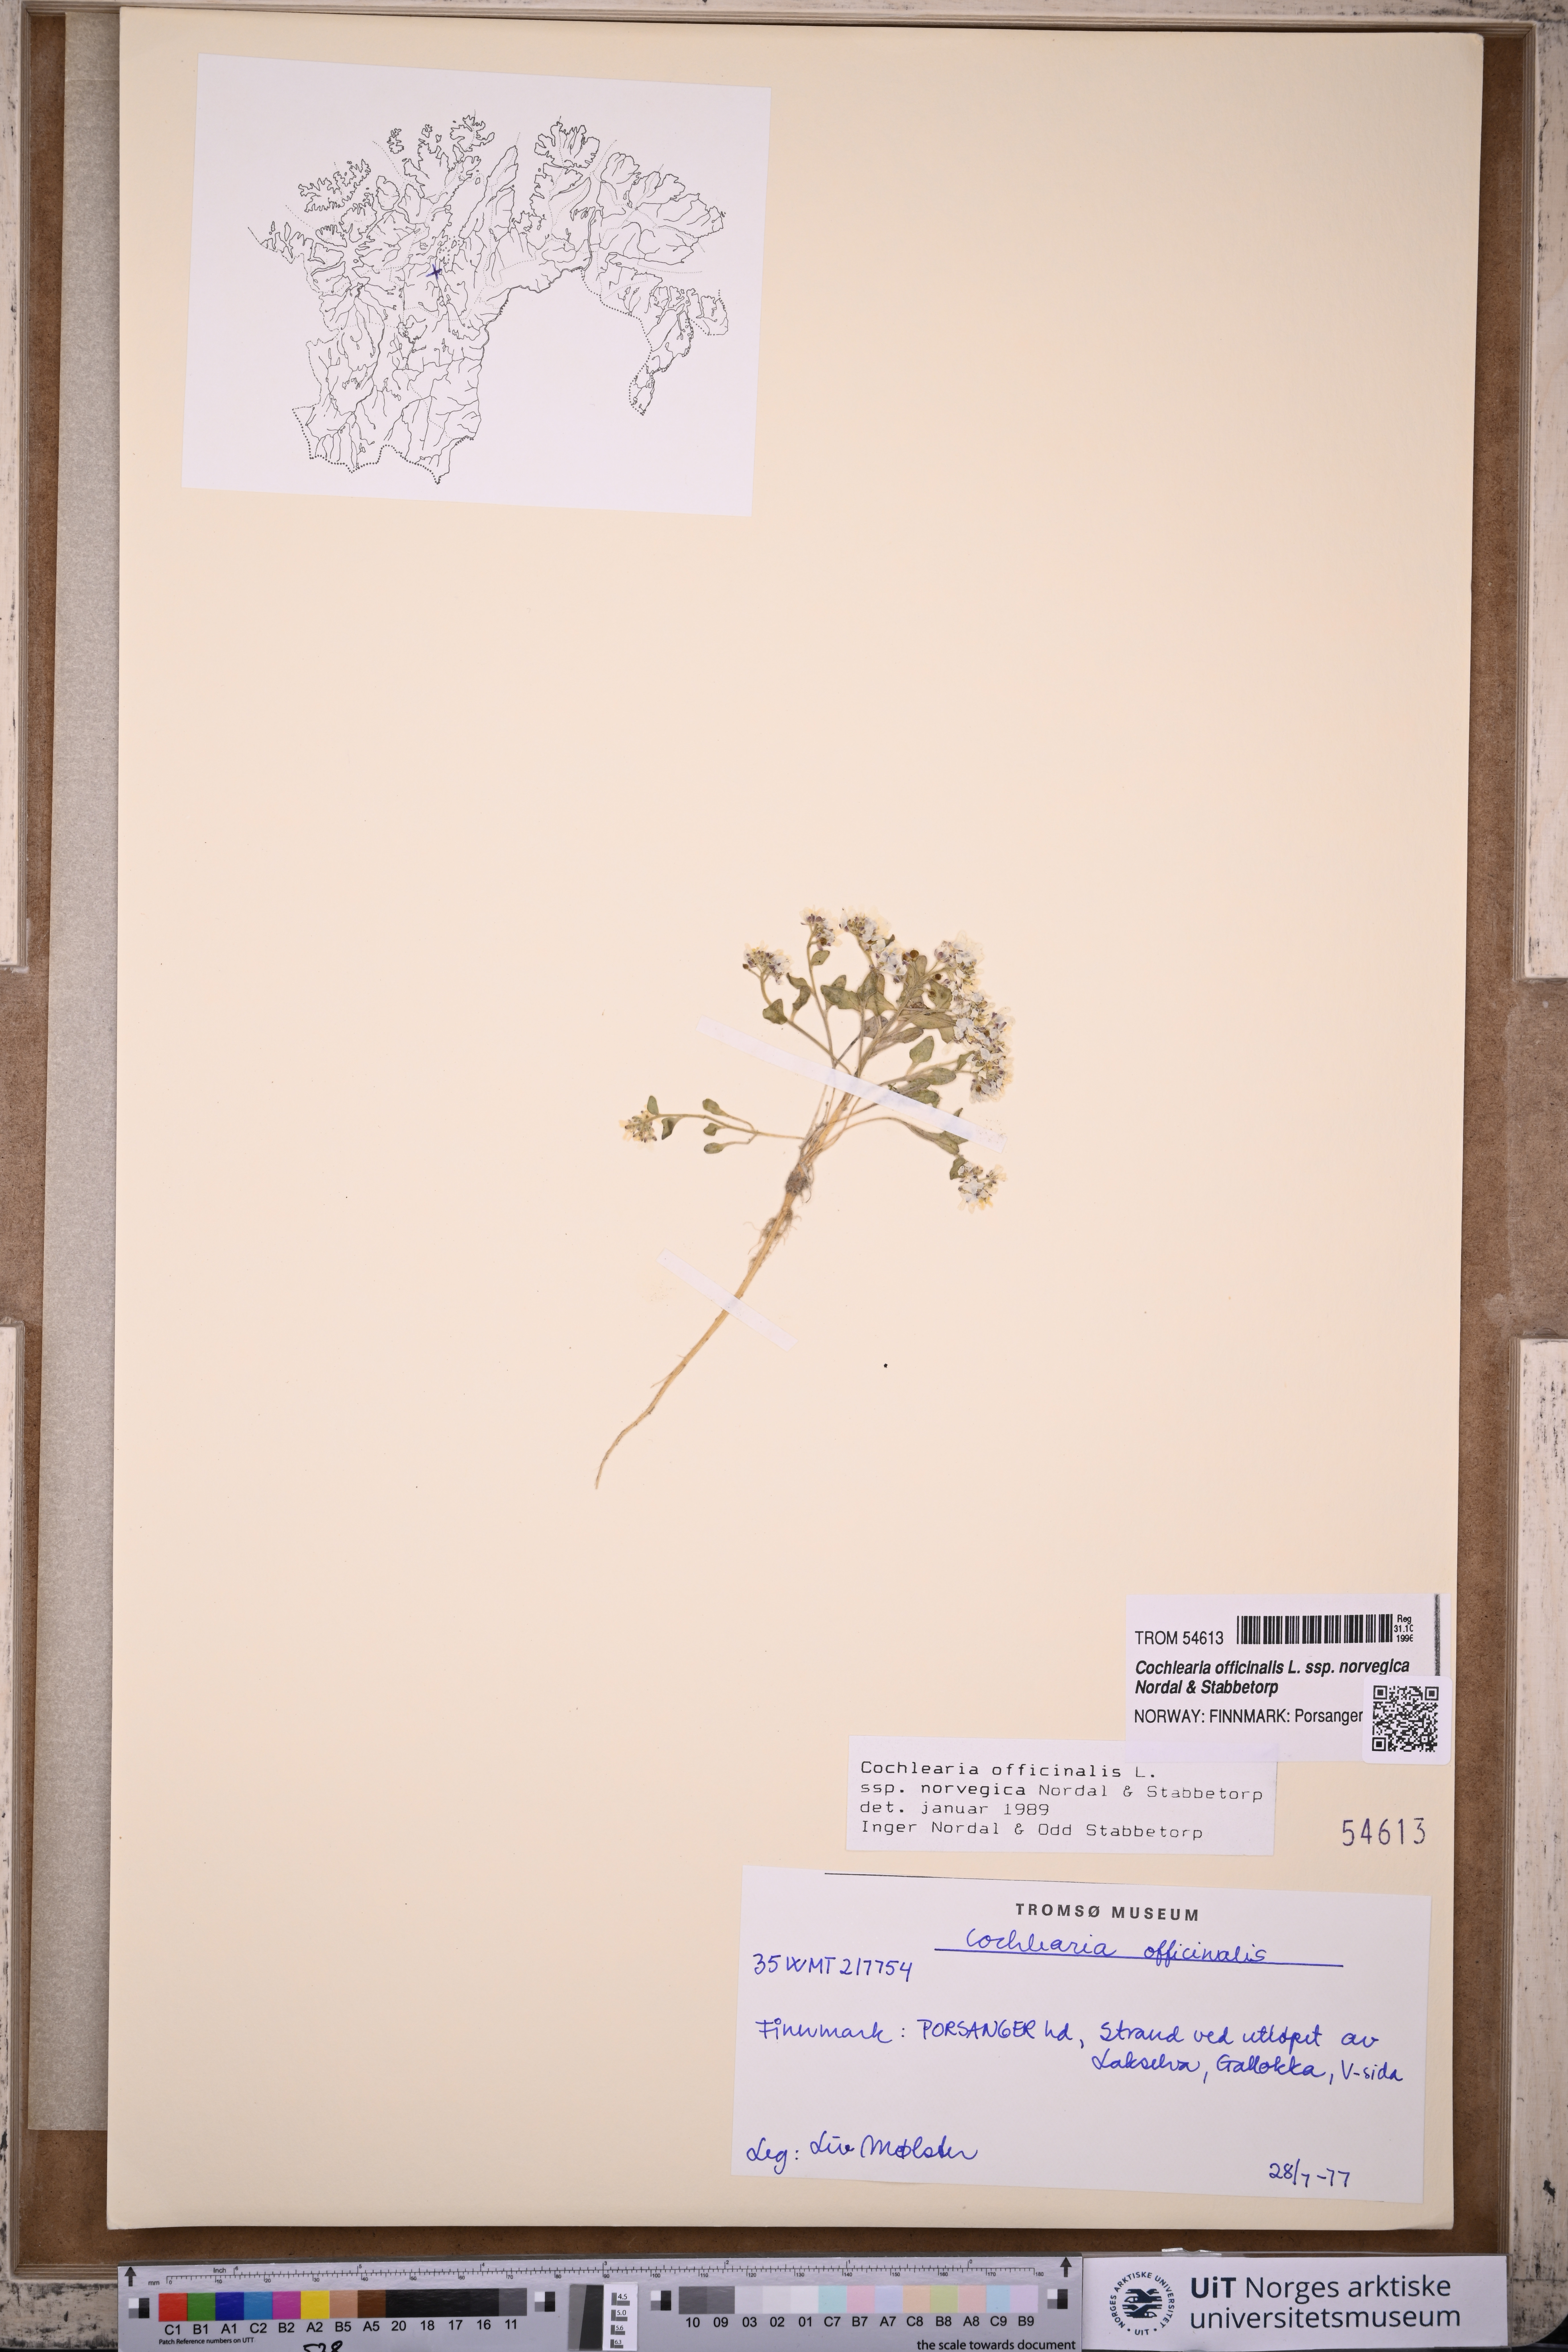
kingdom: Plantae
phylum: Tracheophyta
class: Magnoliopsida
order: Brassicales
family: Brassicaceae
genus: Cochlearia
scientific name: Cochlearia officinalis
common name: Scurvy-grass
